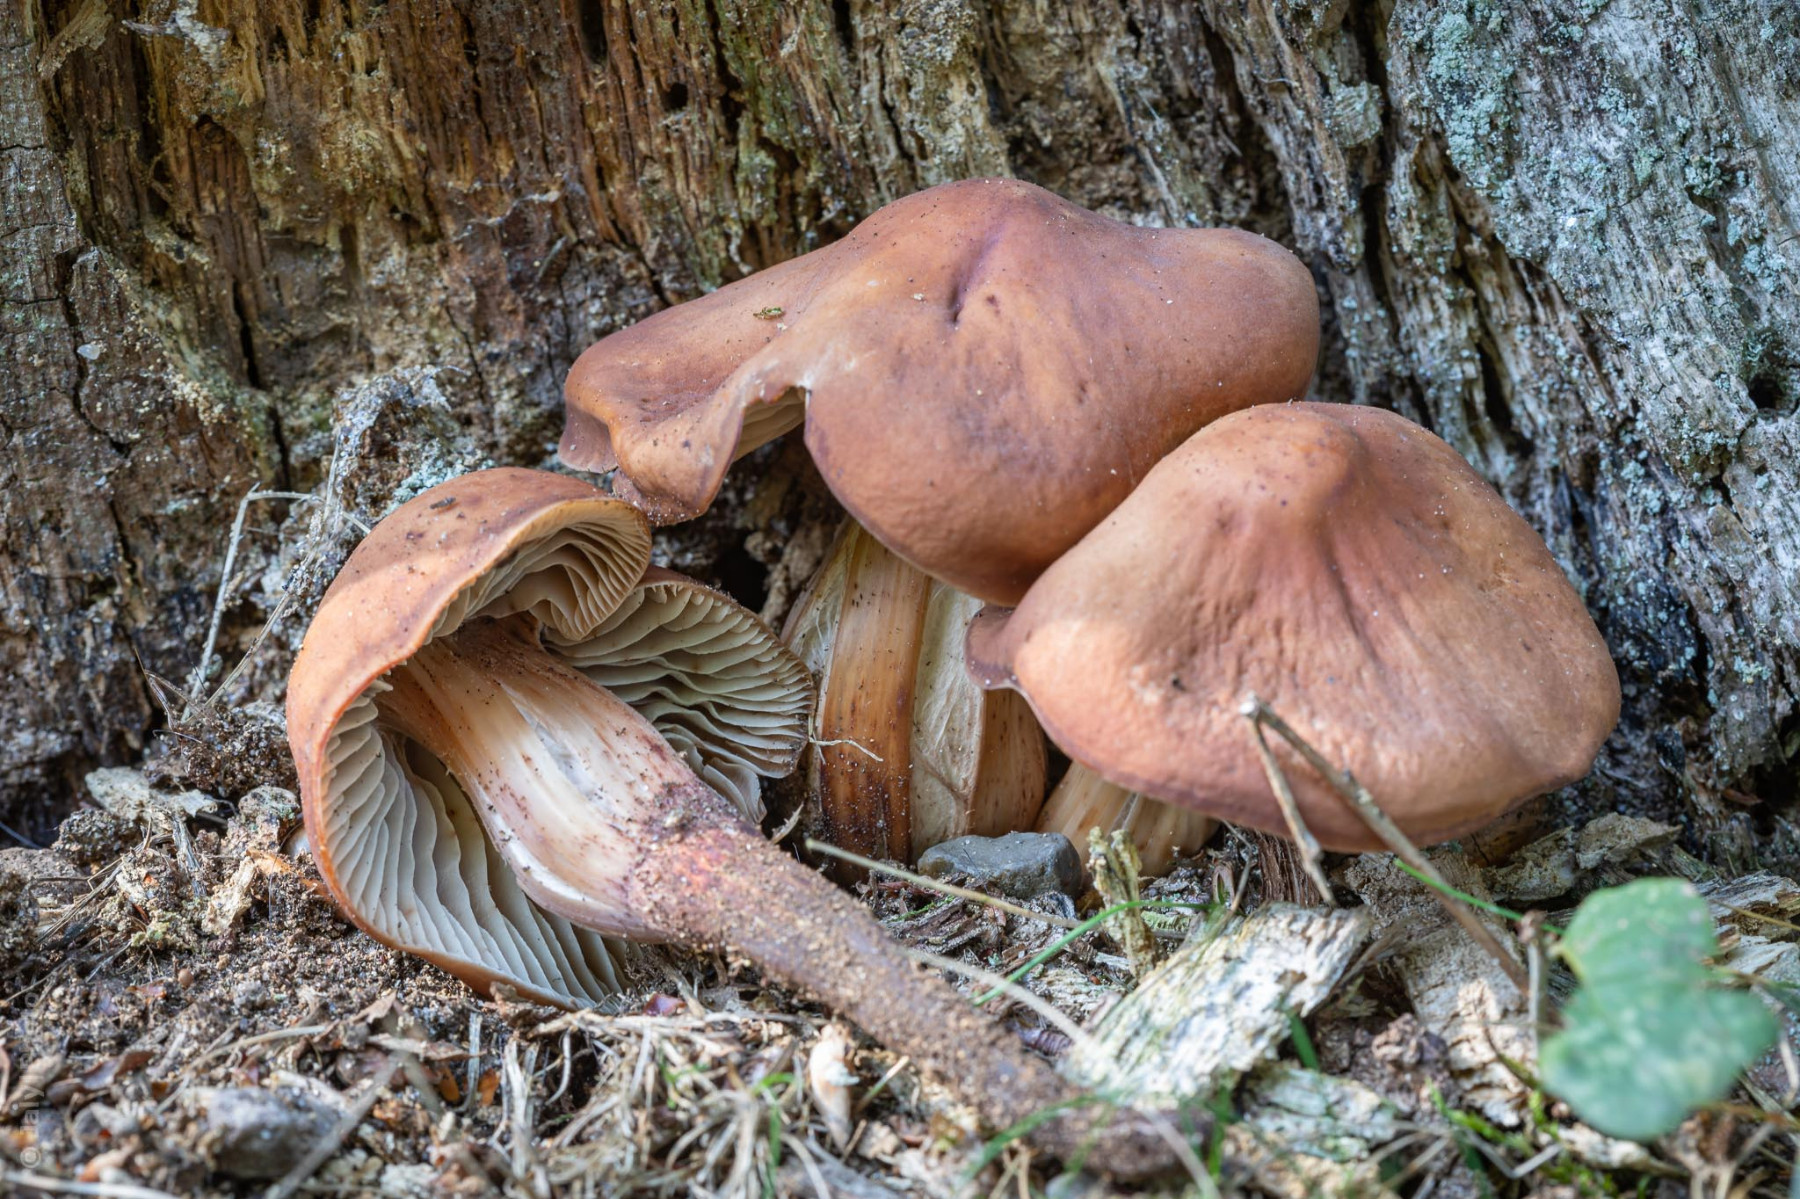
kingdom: Fungi
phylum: Basidiomycota
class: Agaricomycetes
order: Agaricales
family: Omphalotaceae
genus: Gymnopus
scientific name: Gymnopus fusipes
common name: tenstokket fladhat
